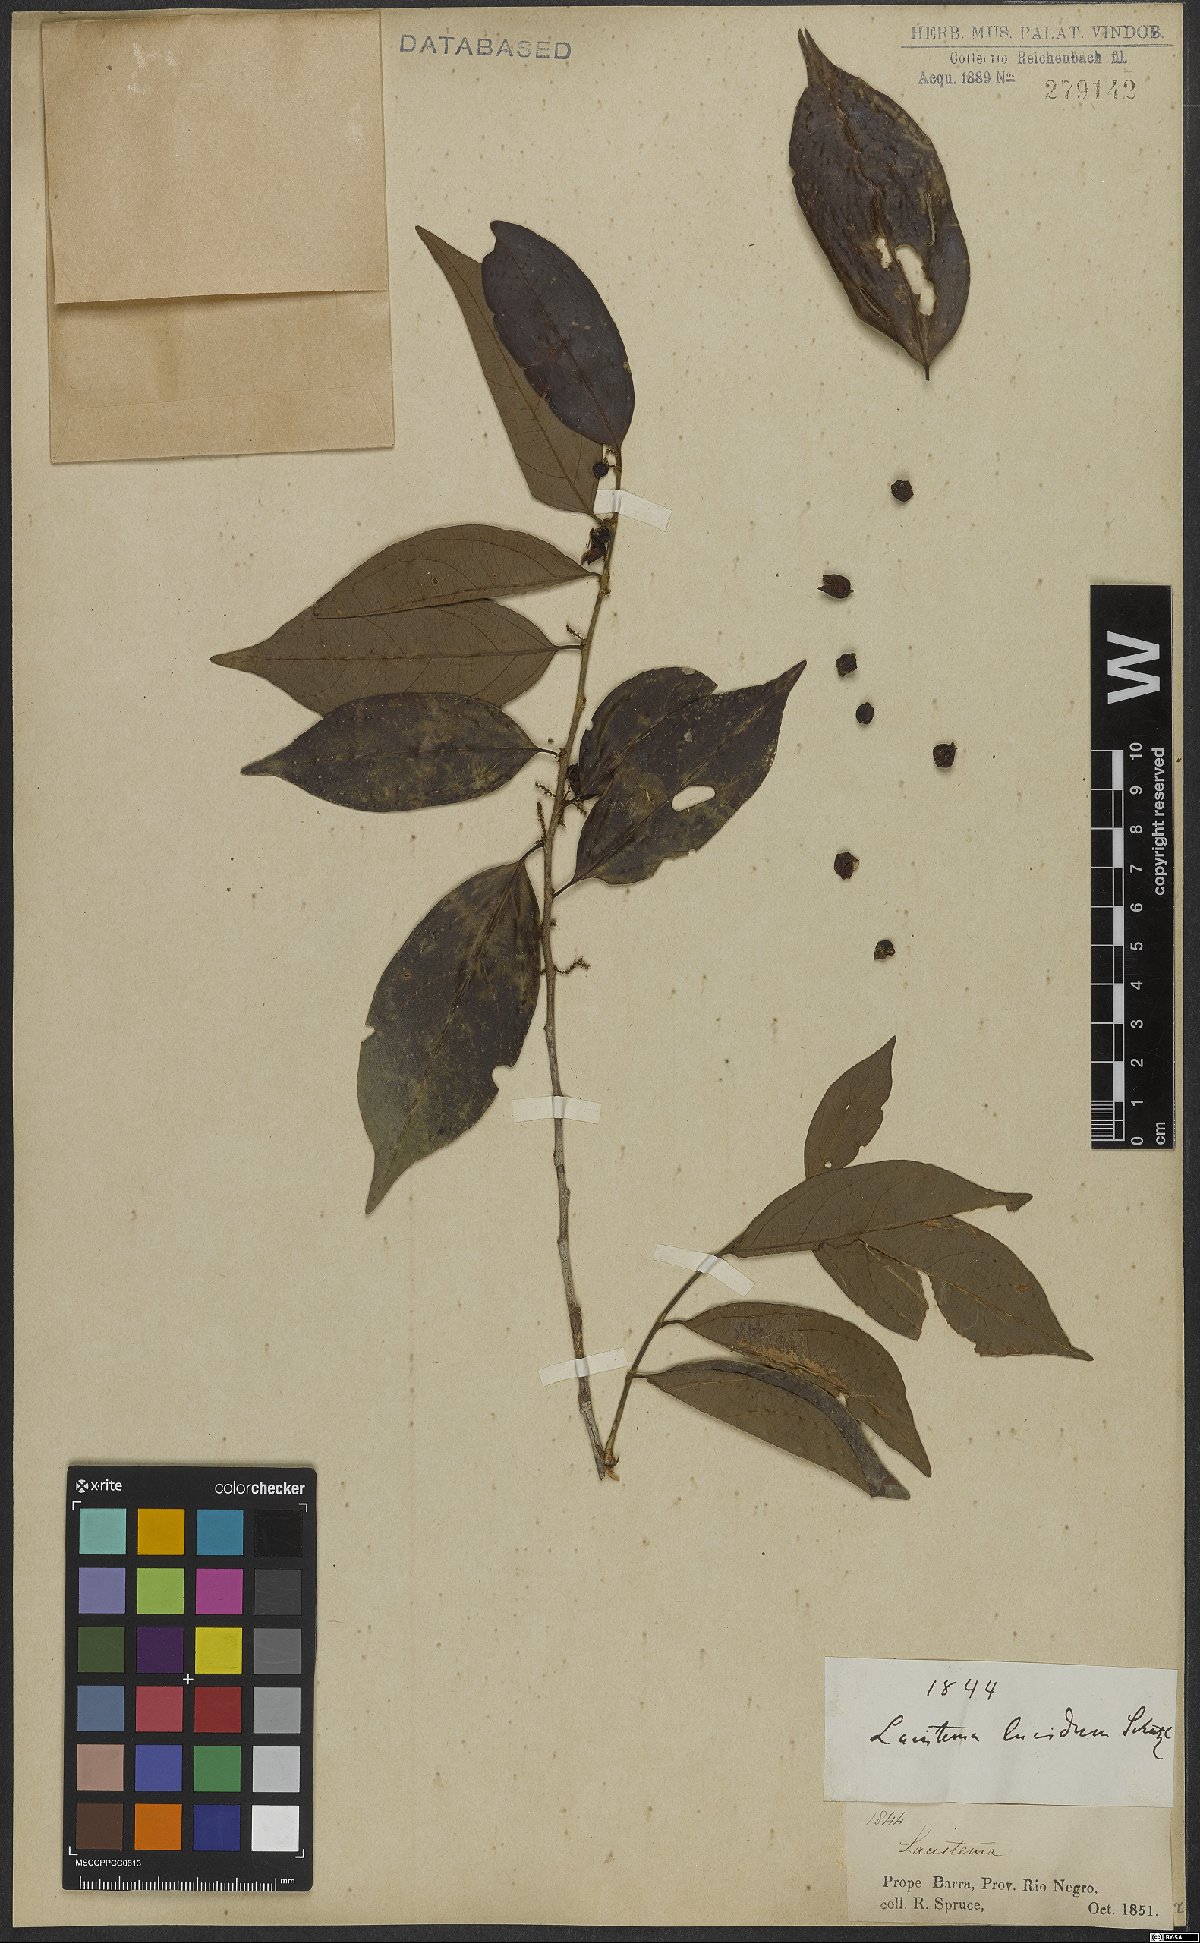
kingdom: Plantae
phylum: Tracheophyta
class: Magnoliopsida
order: Malpighiales
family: Lacistemataceae
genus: Lacistema
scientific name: Lacistema lucidum
